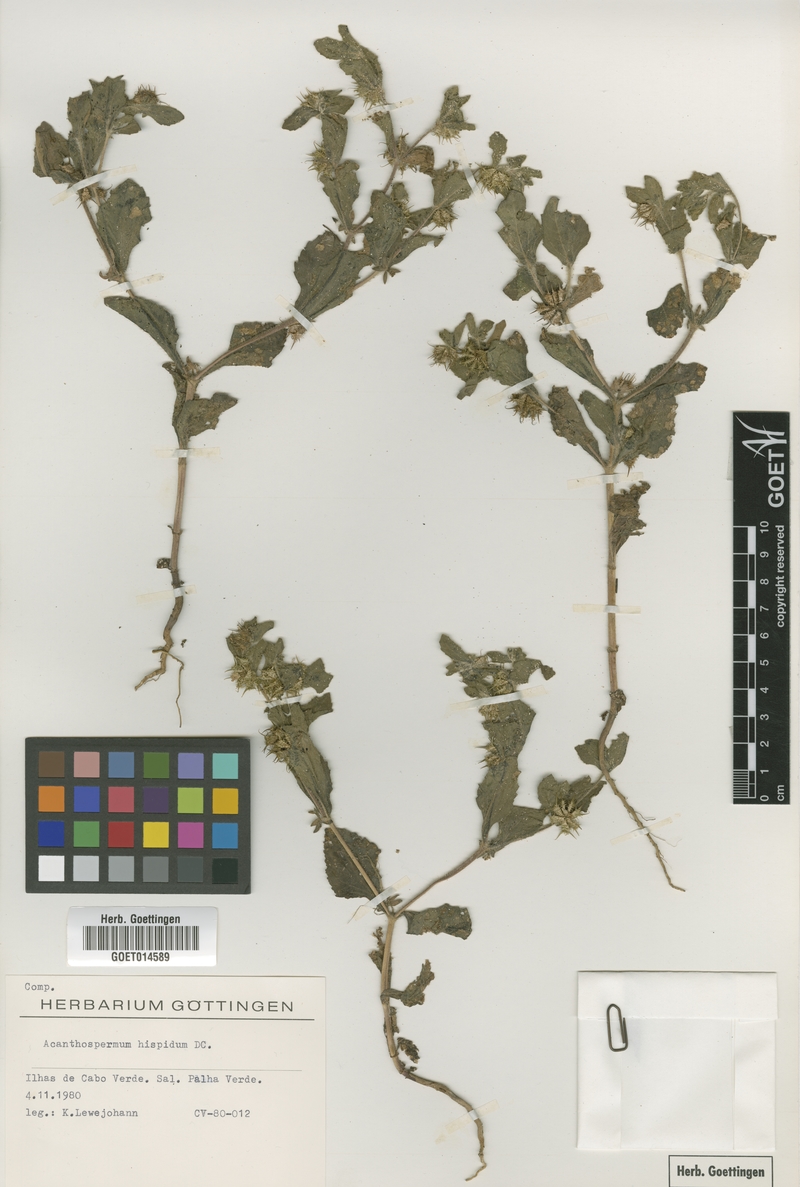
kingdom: Plantae
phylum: Tracheophyta
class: Magnoliopsida
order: Asterales
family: Asteraceae
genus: Acanthospermum
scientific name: Acanthospermum hispidum
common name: Hispid starbur
